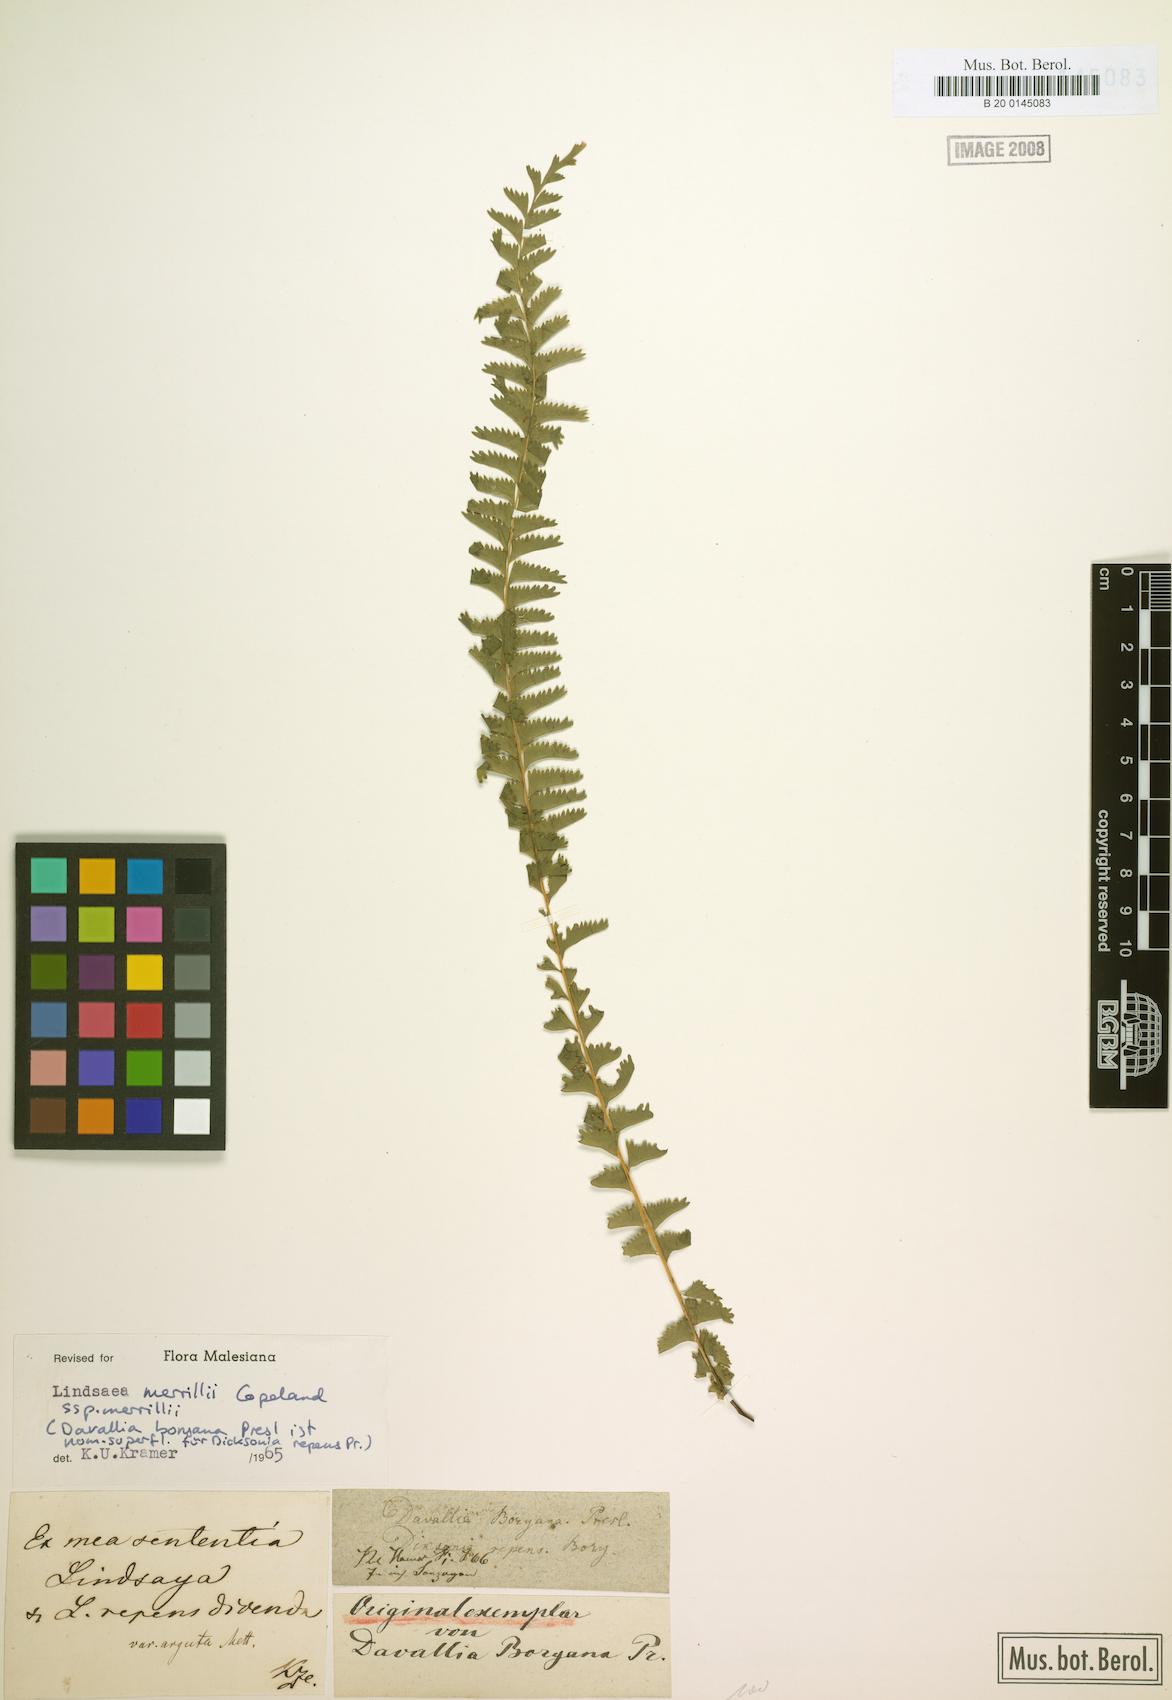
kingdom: Plantae
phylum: Tracheophyta
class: Polypodiopsida
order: Polypodiales
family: Lindsaeaceae
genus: Lindsaea
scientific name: Lindsaea merrillii
